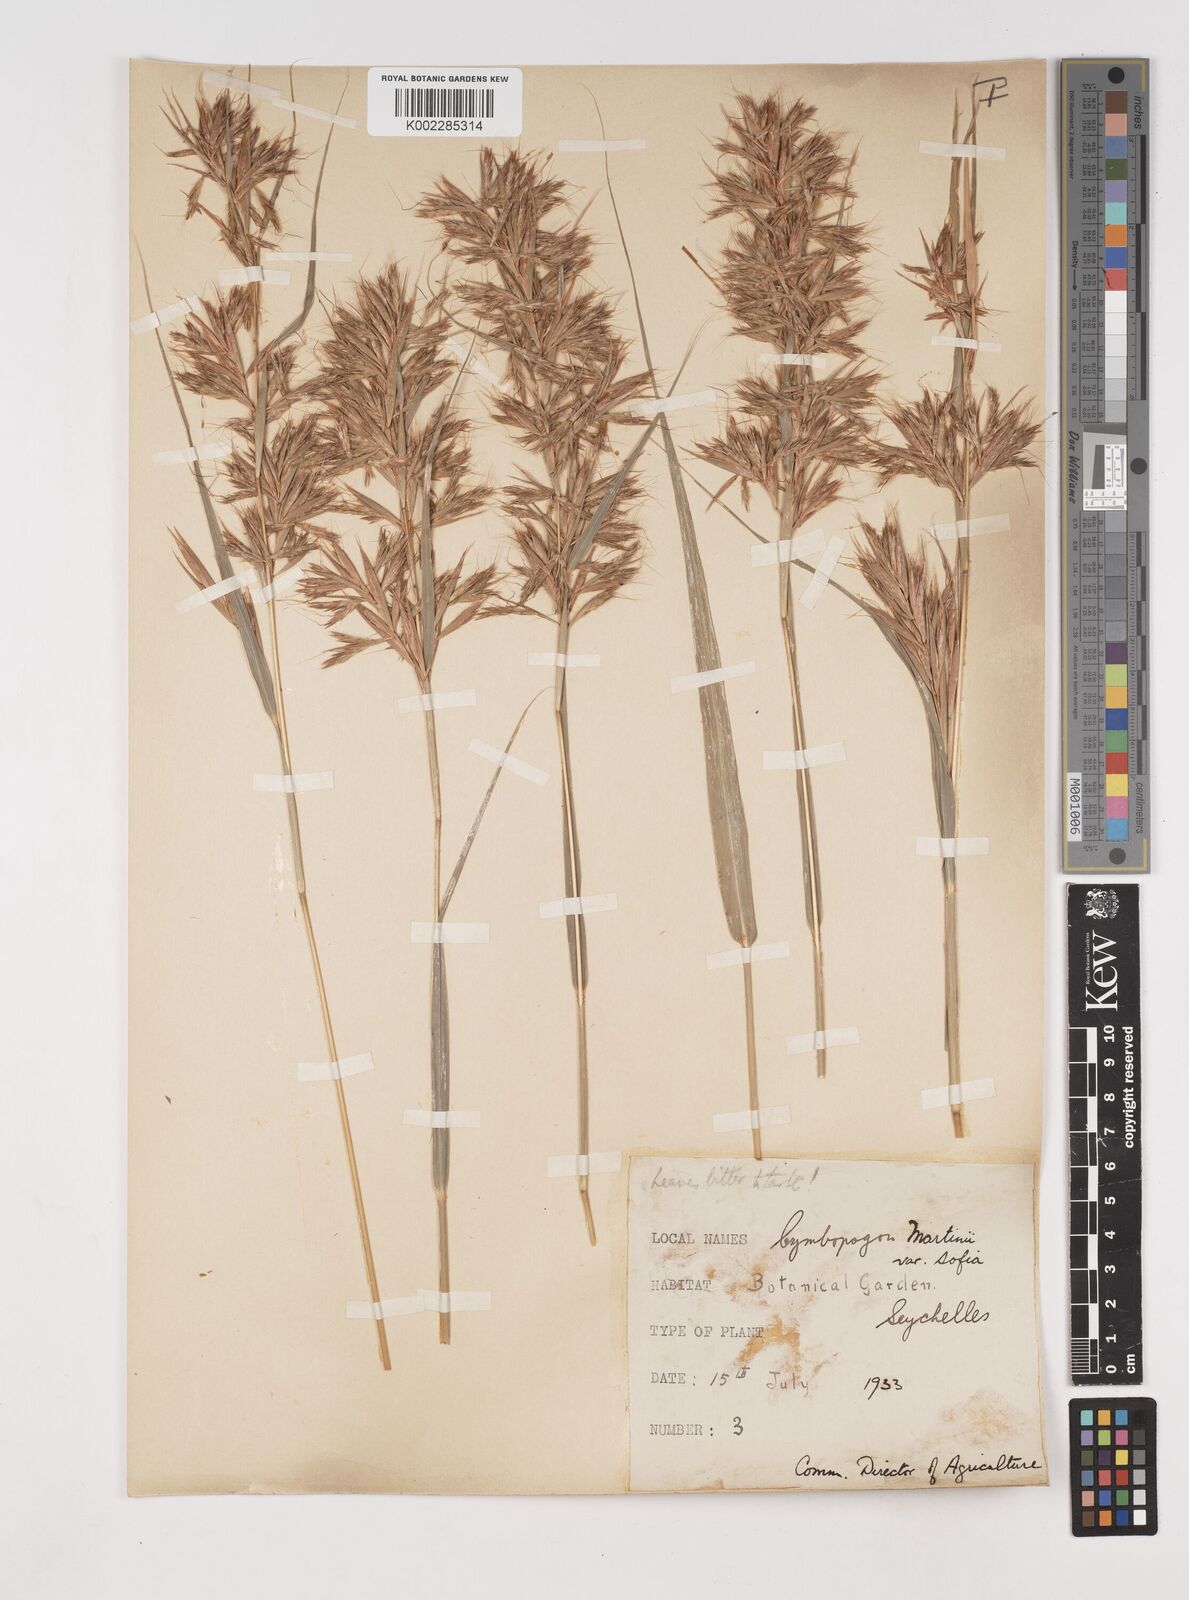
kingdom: Plantae
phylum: Tracheophyta
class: Liliopsida
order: Poales
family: Poaceae
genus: Cymbopogon
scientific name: Cymbopogon martini
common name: Ginger grass
